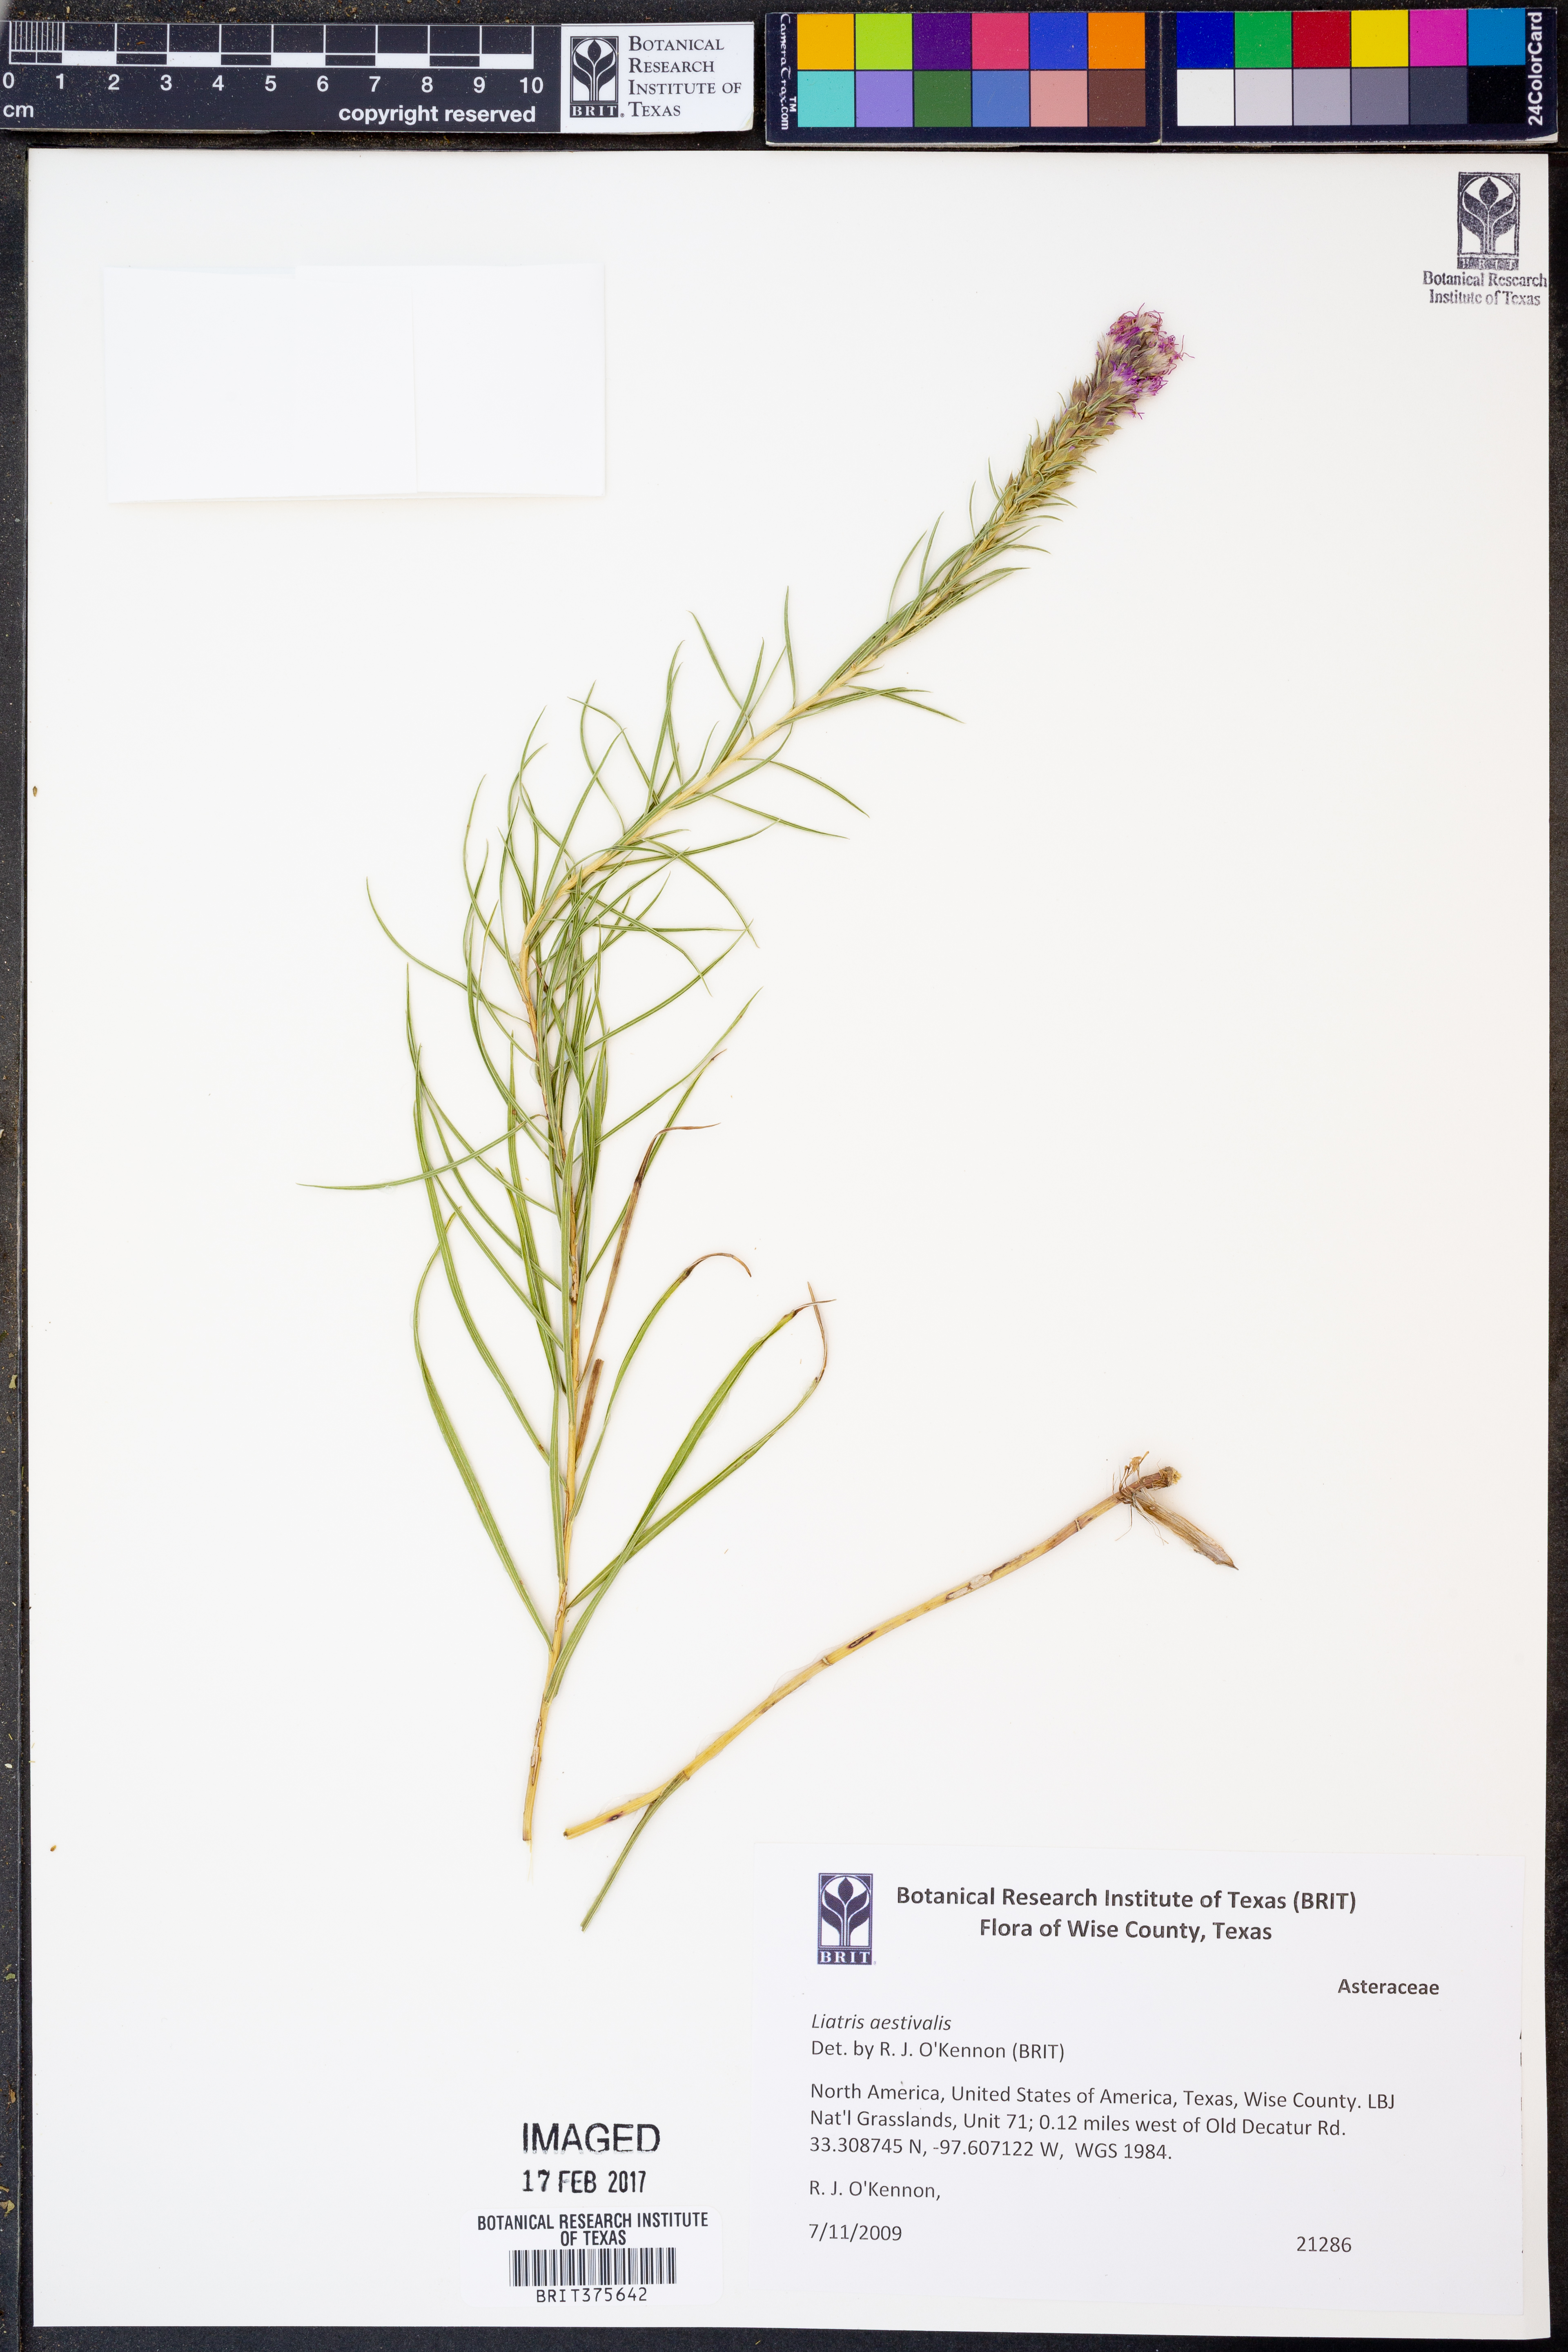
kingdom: Plantae
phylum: Tracheophyta
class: Magnoliopsida
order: Asterales
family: Asteraceae
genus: Liatris
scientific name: Liatris aestivalis
